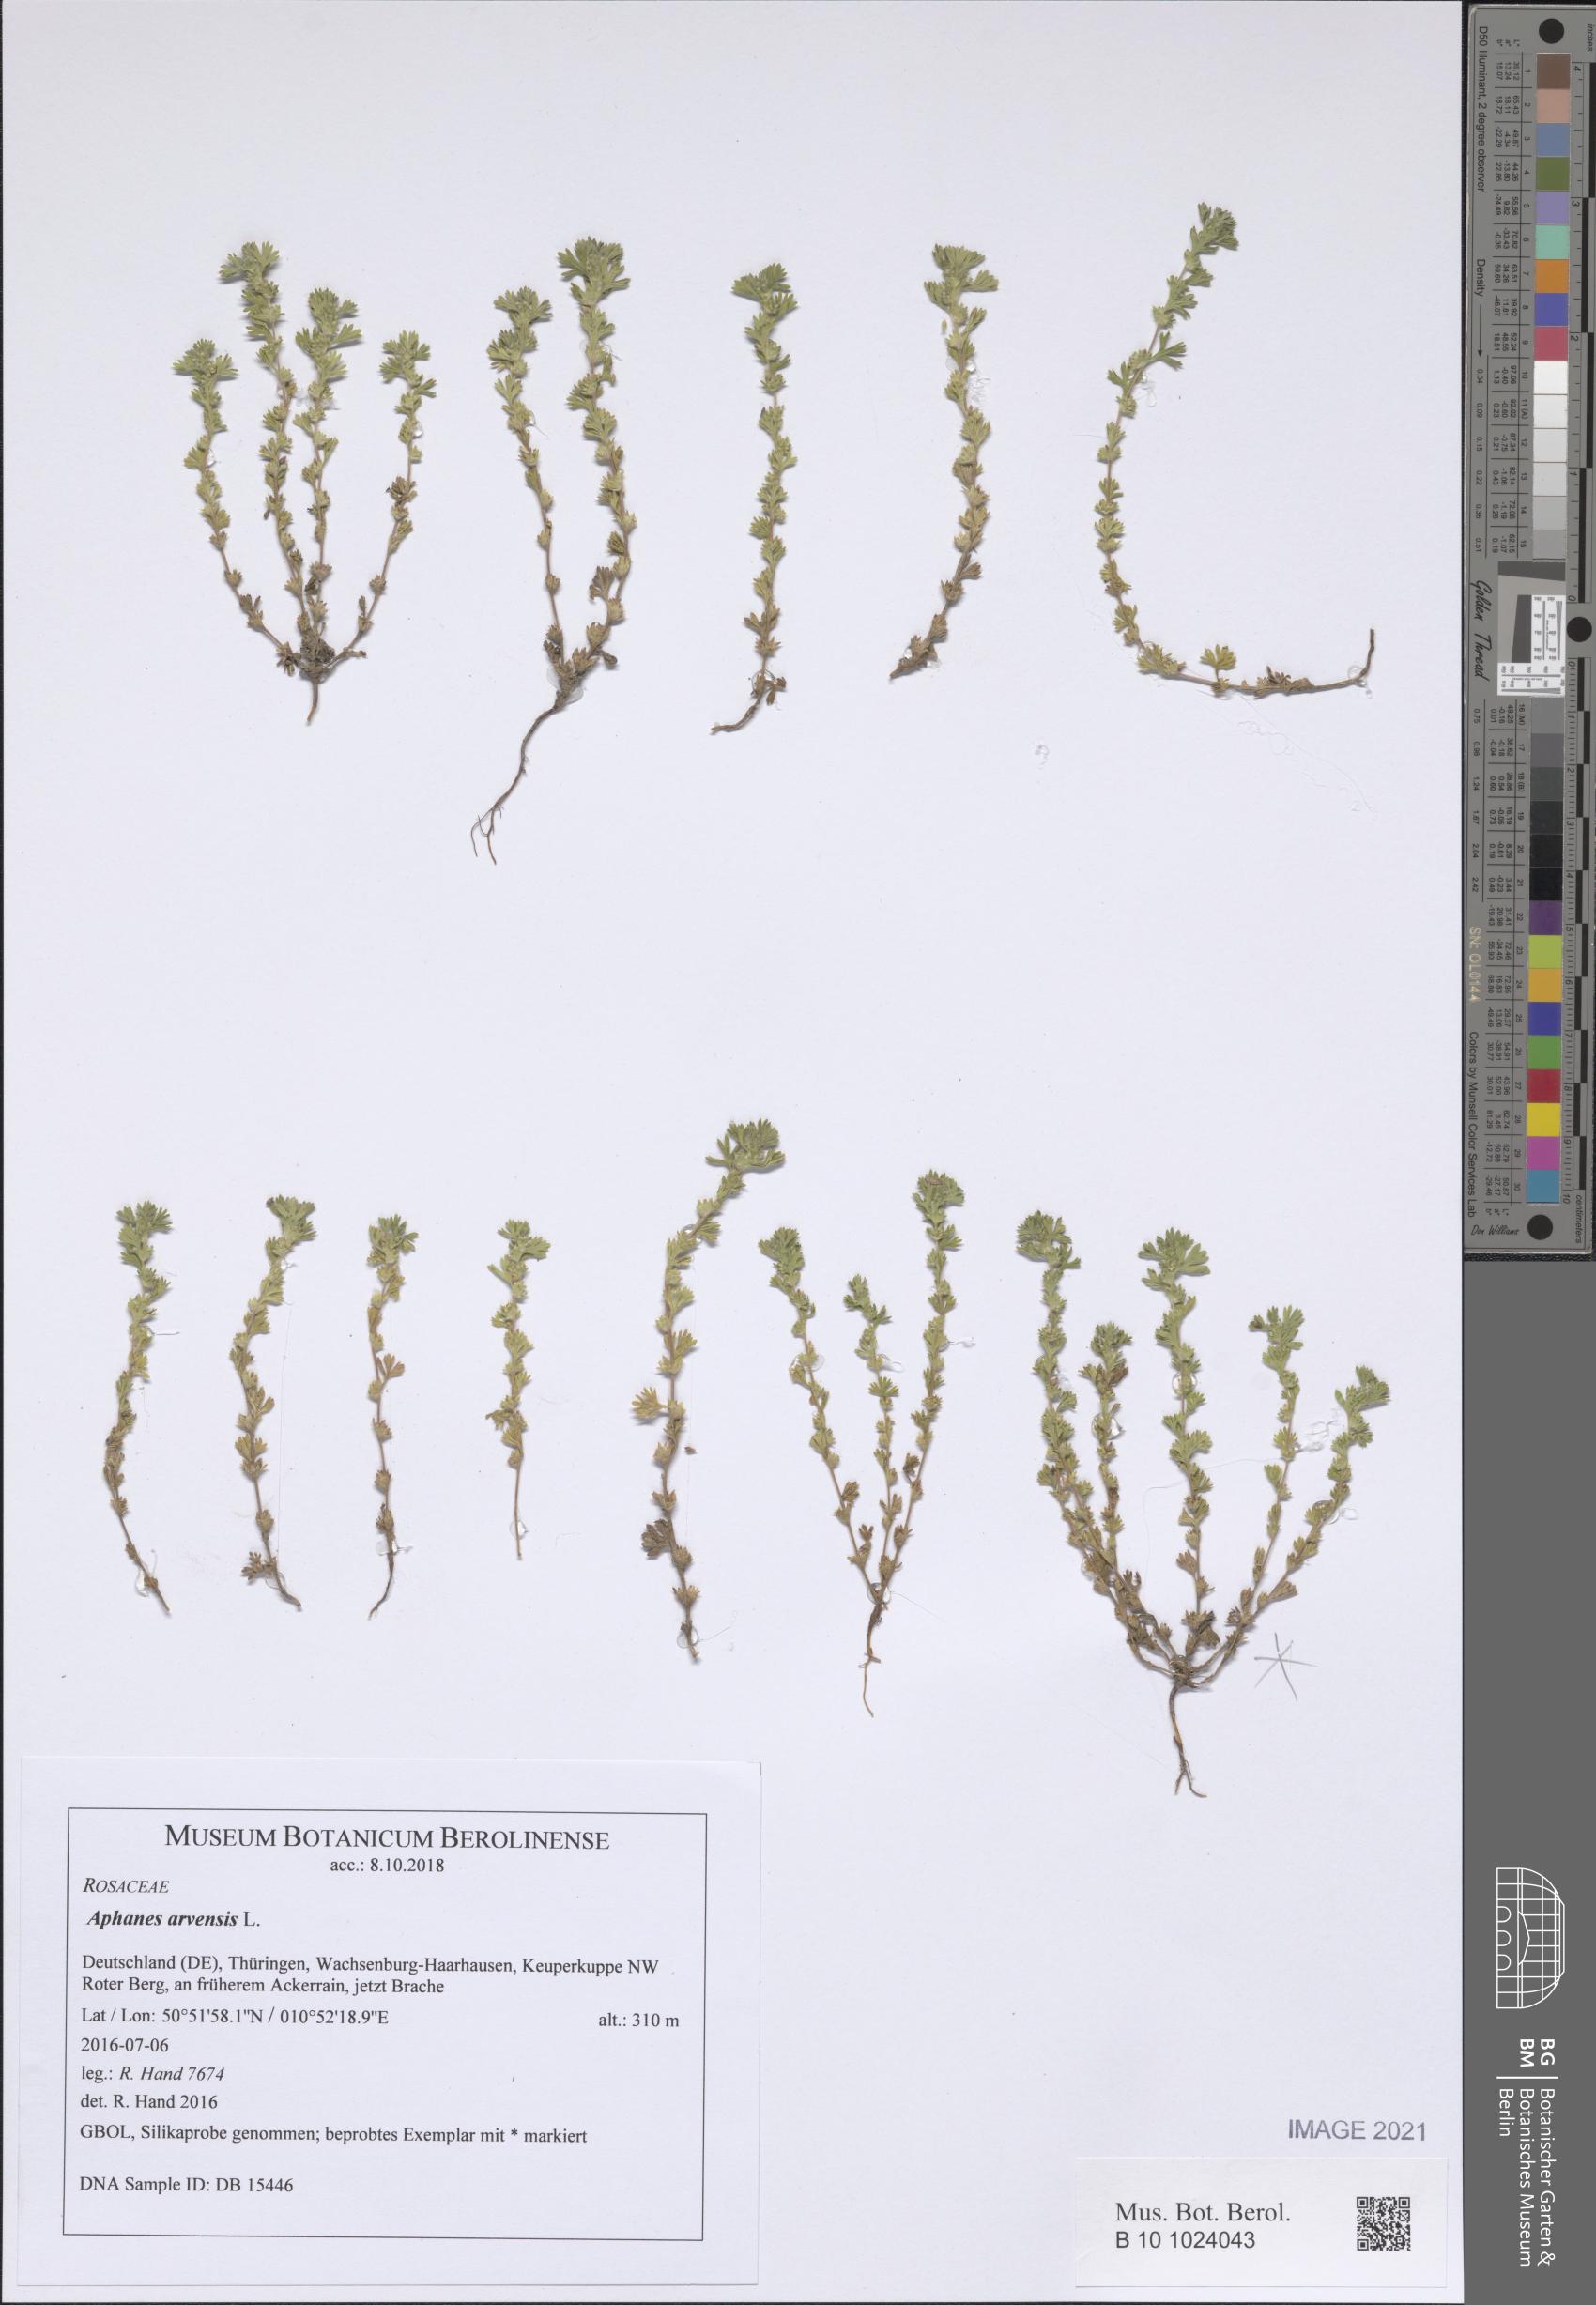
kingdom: Plantae
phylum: Tracheophyta
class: Magnoliopsida
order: Rosales
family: Rosaceae
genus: Aphanes
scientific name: Aphanes arvensis
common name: Parsley-piert
